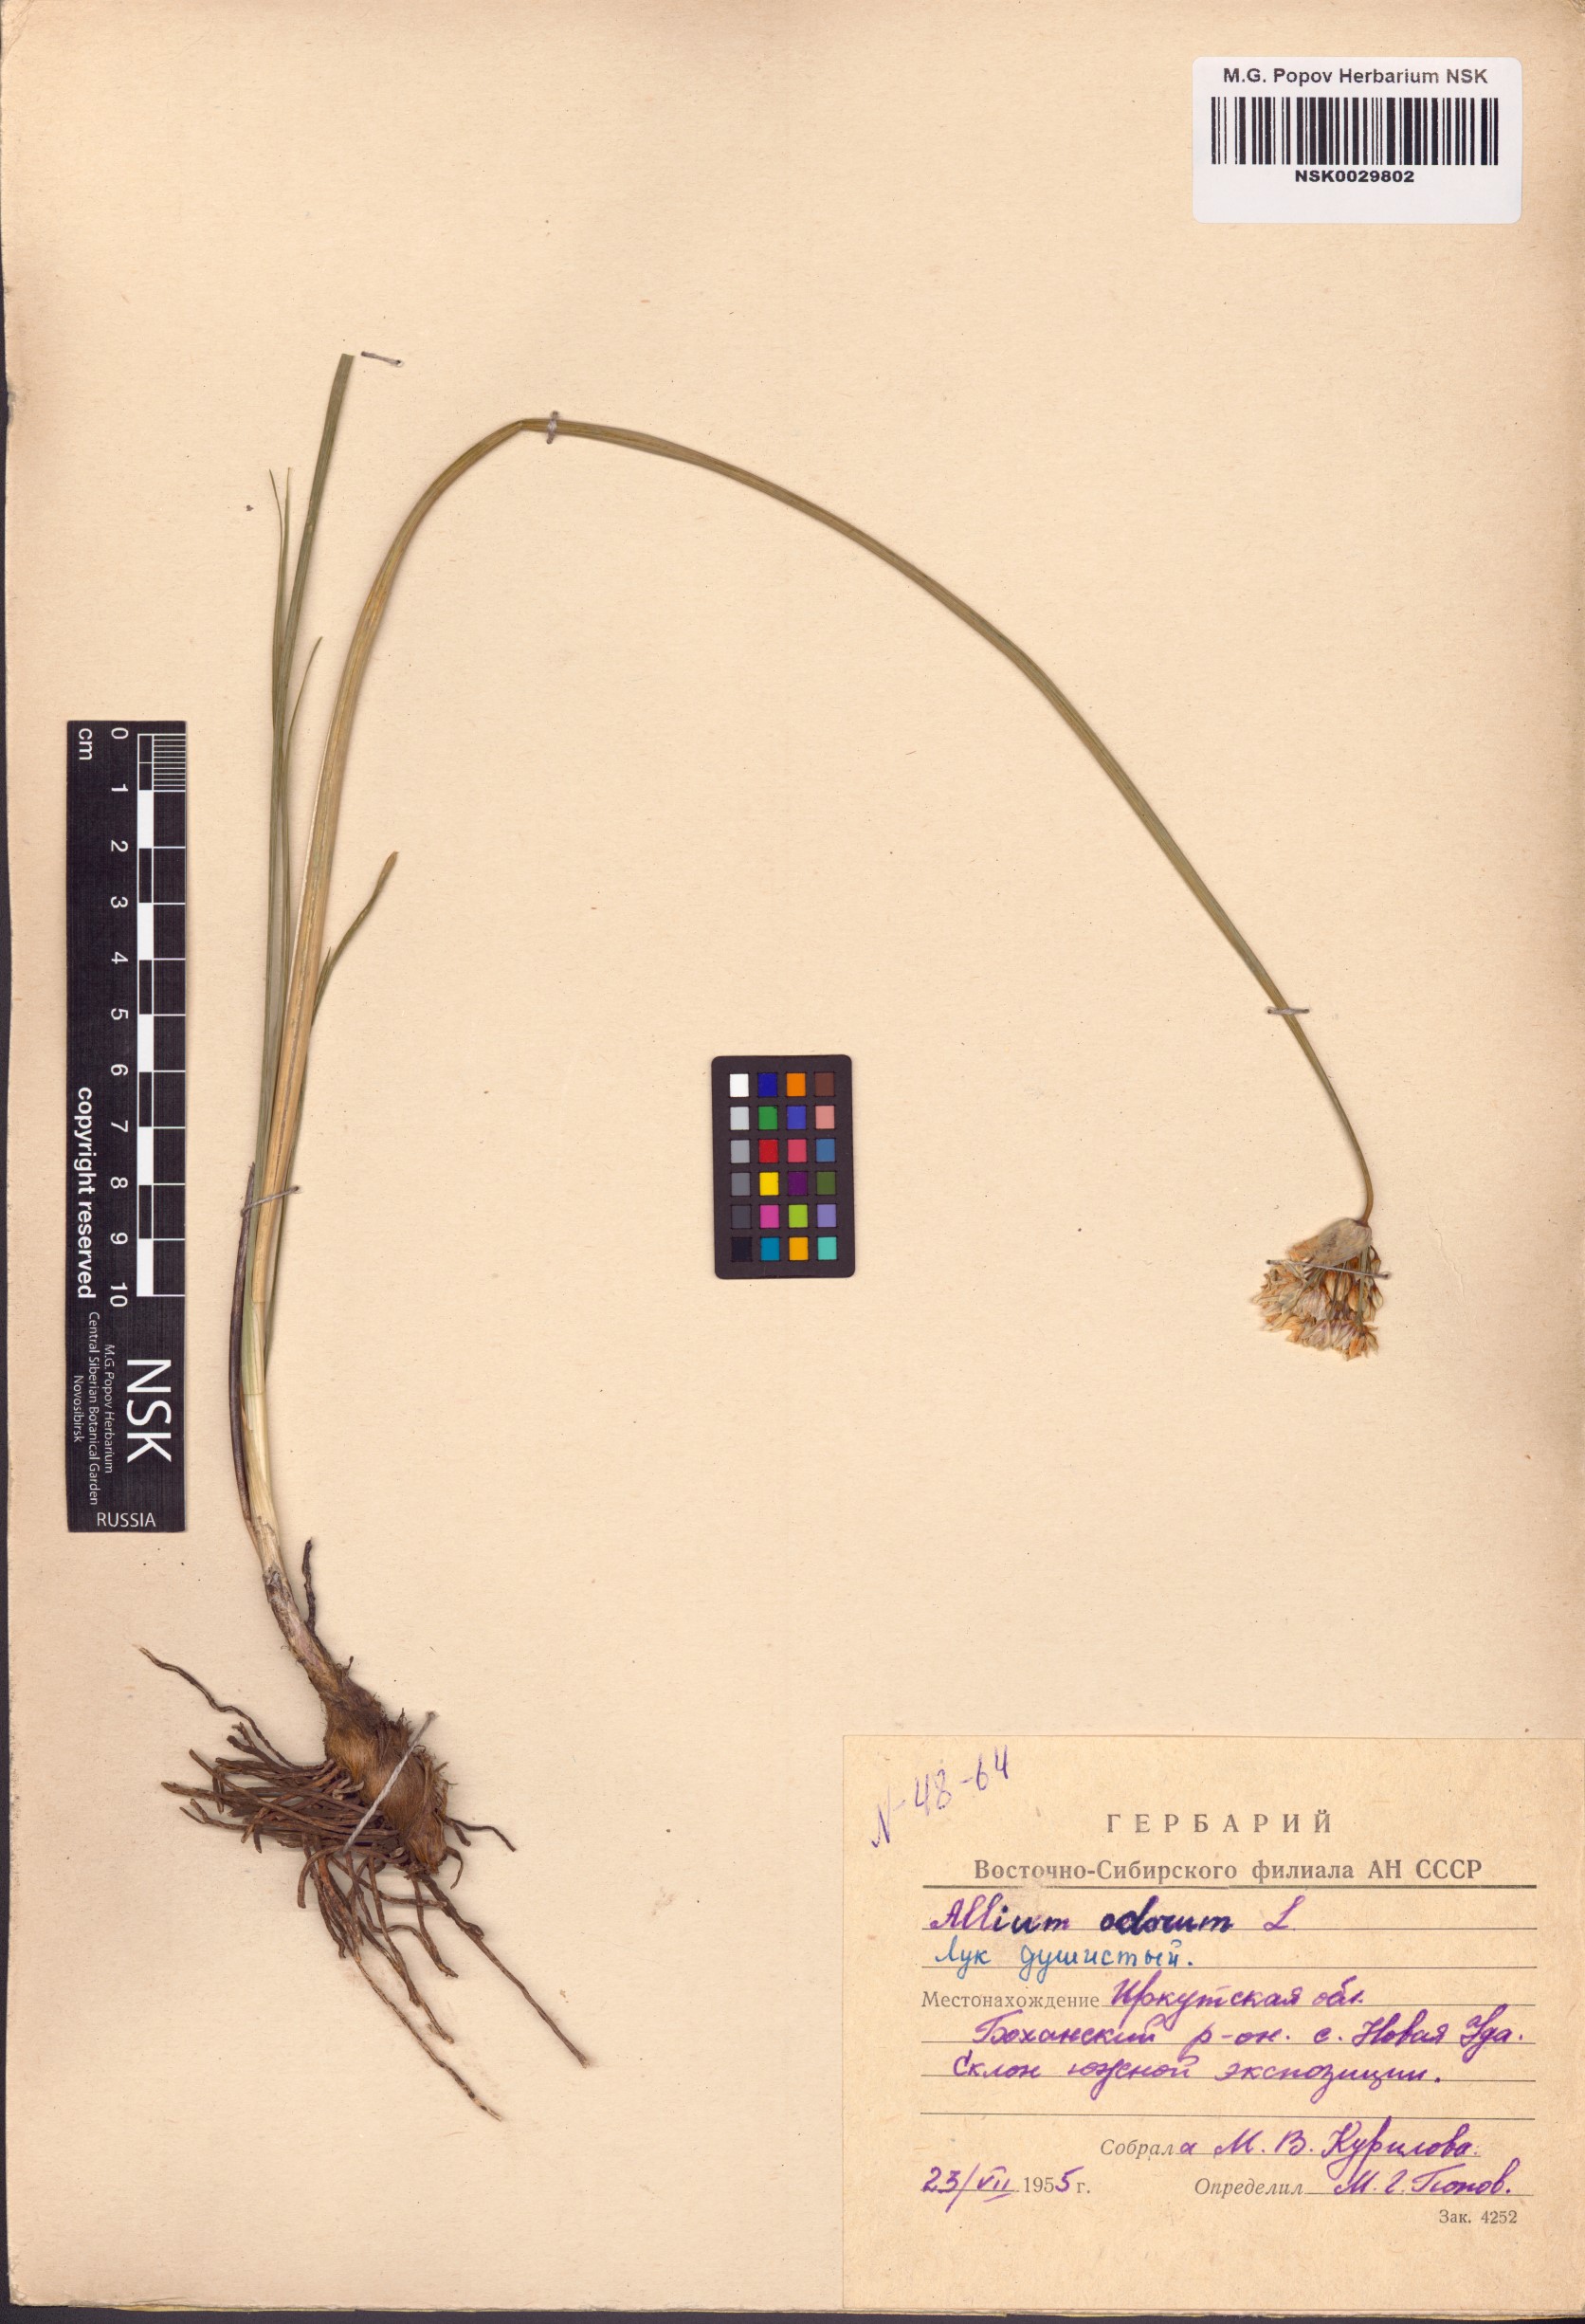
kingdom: Plantae
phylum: Tracheophyta
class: Liliopsida
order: Asparagales
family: Amaryllidaceae
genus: Allium
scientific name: Allium ramosum
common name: Fragrant garlic
